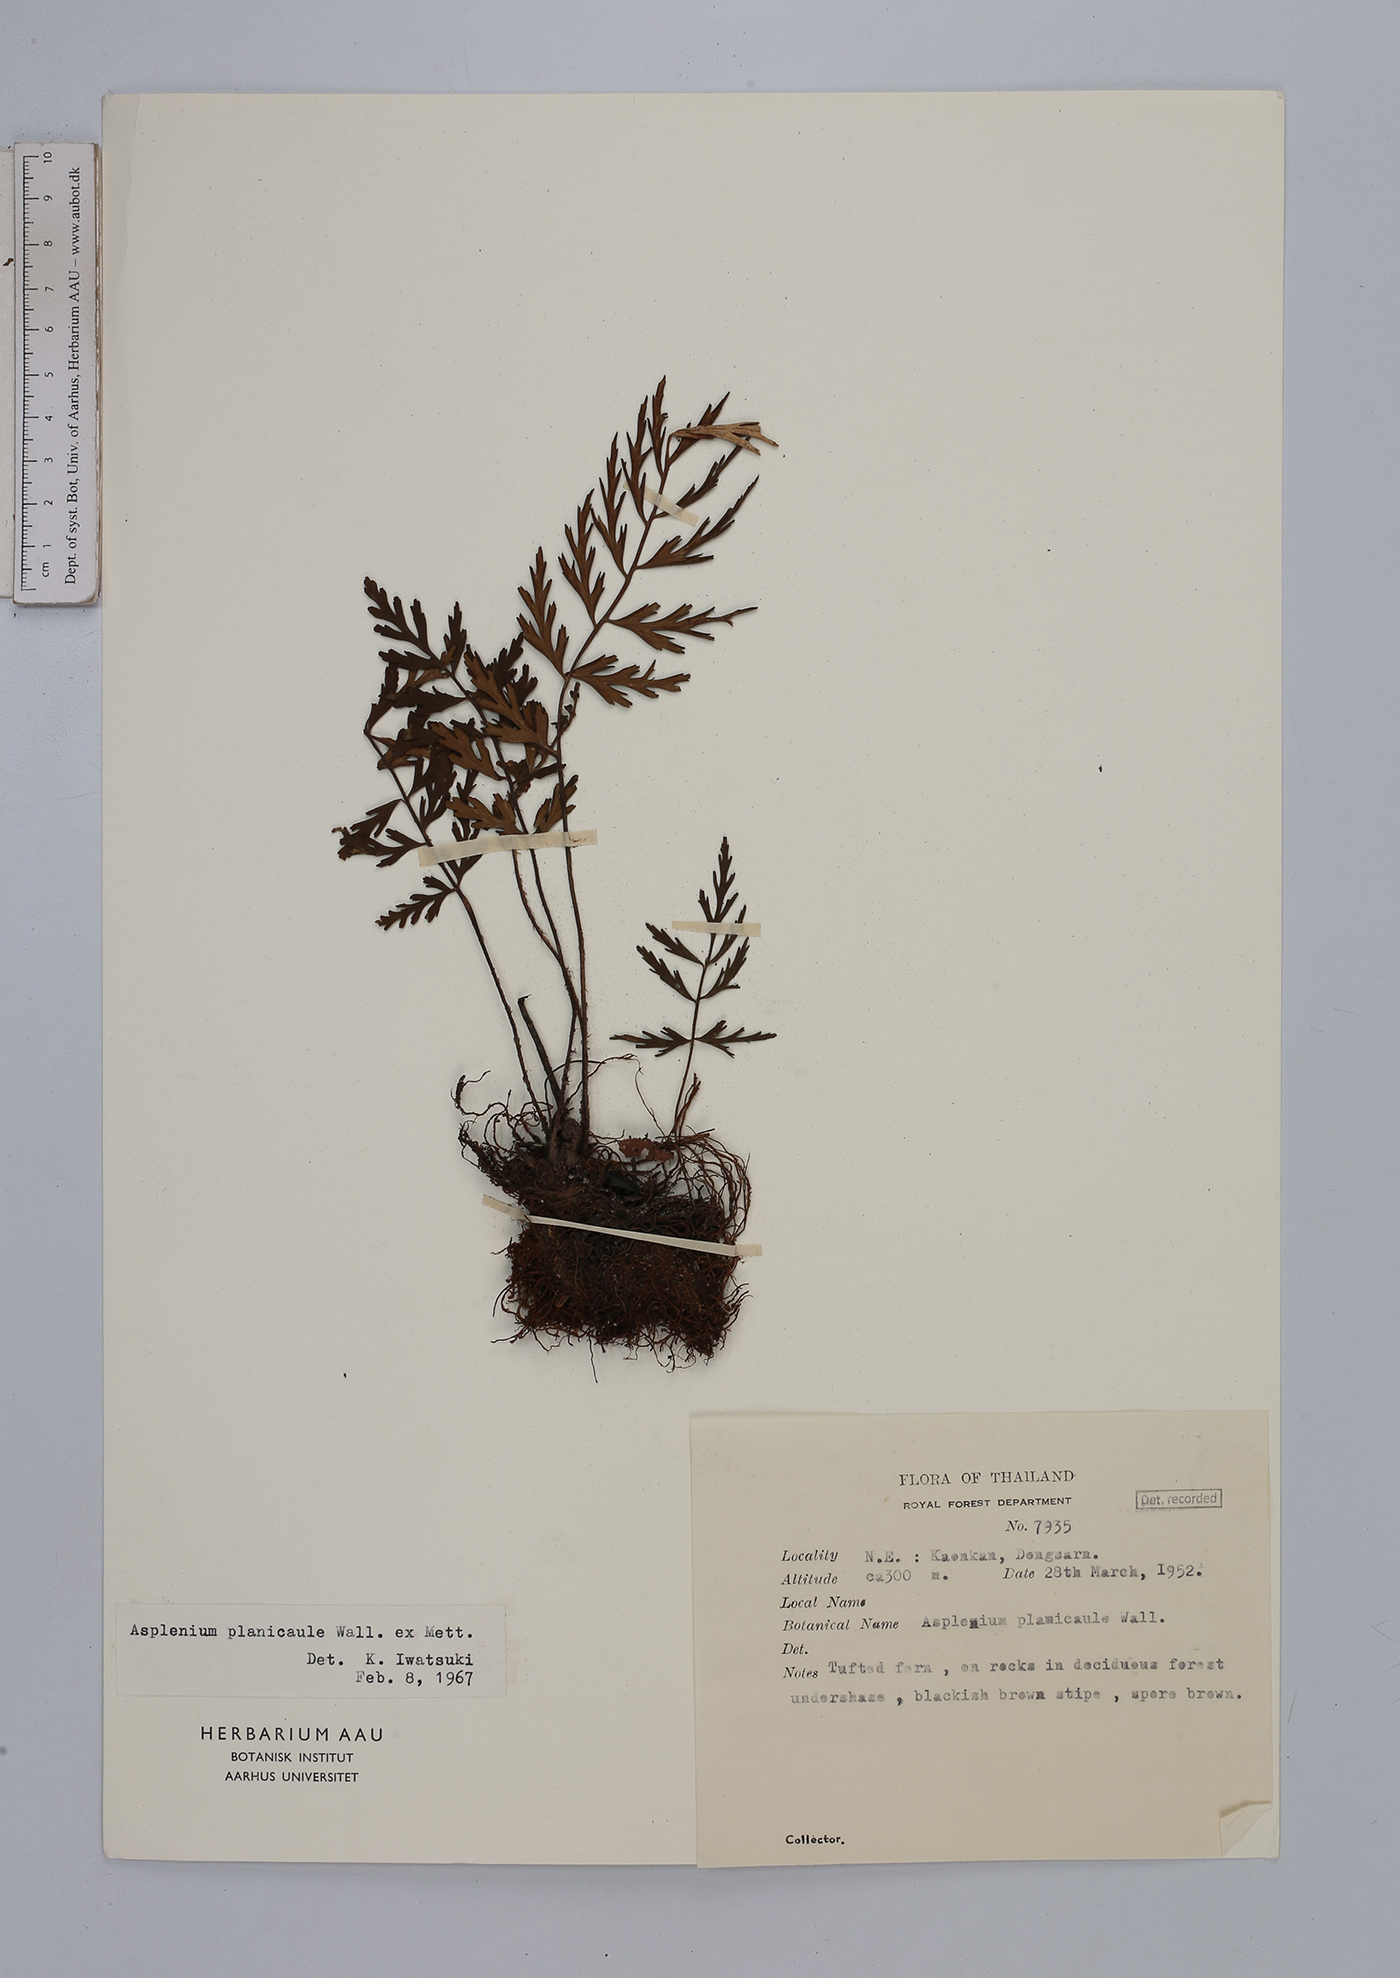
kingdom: Plantae
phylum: Tracheophyta
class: Polypodiopsida
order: Polypodiales
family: Aspleniaceae
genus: Asplenium
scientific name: Asplenium lividum
